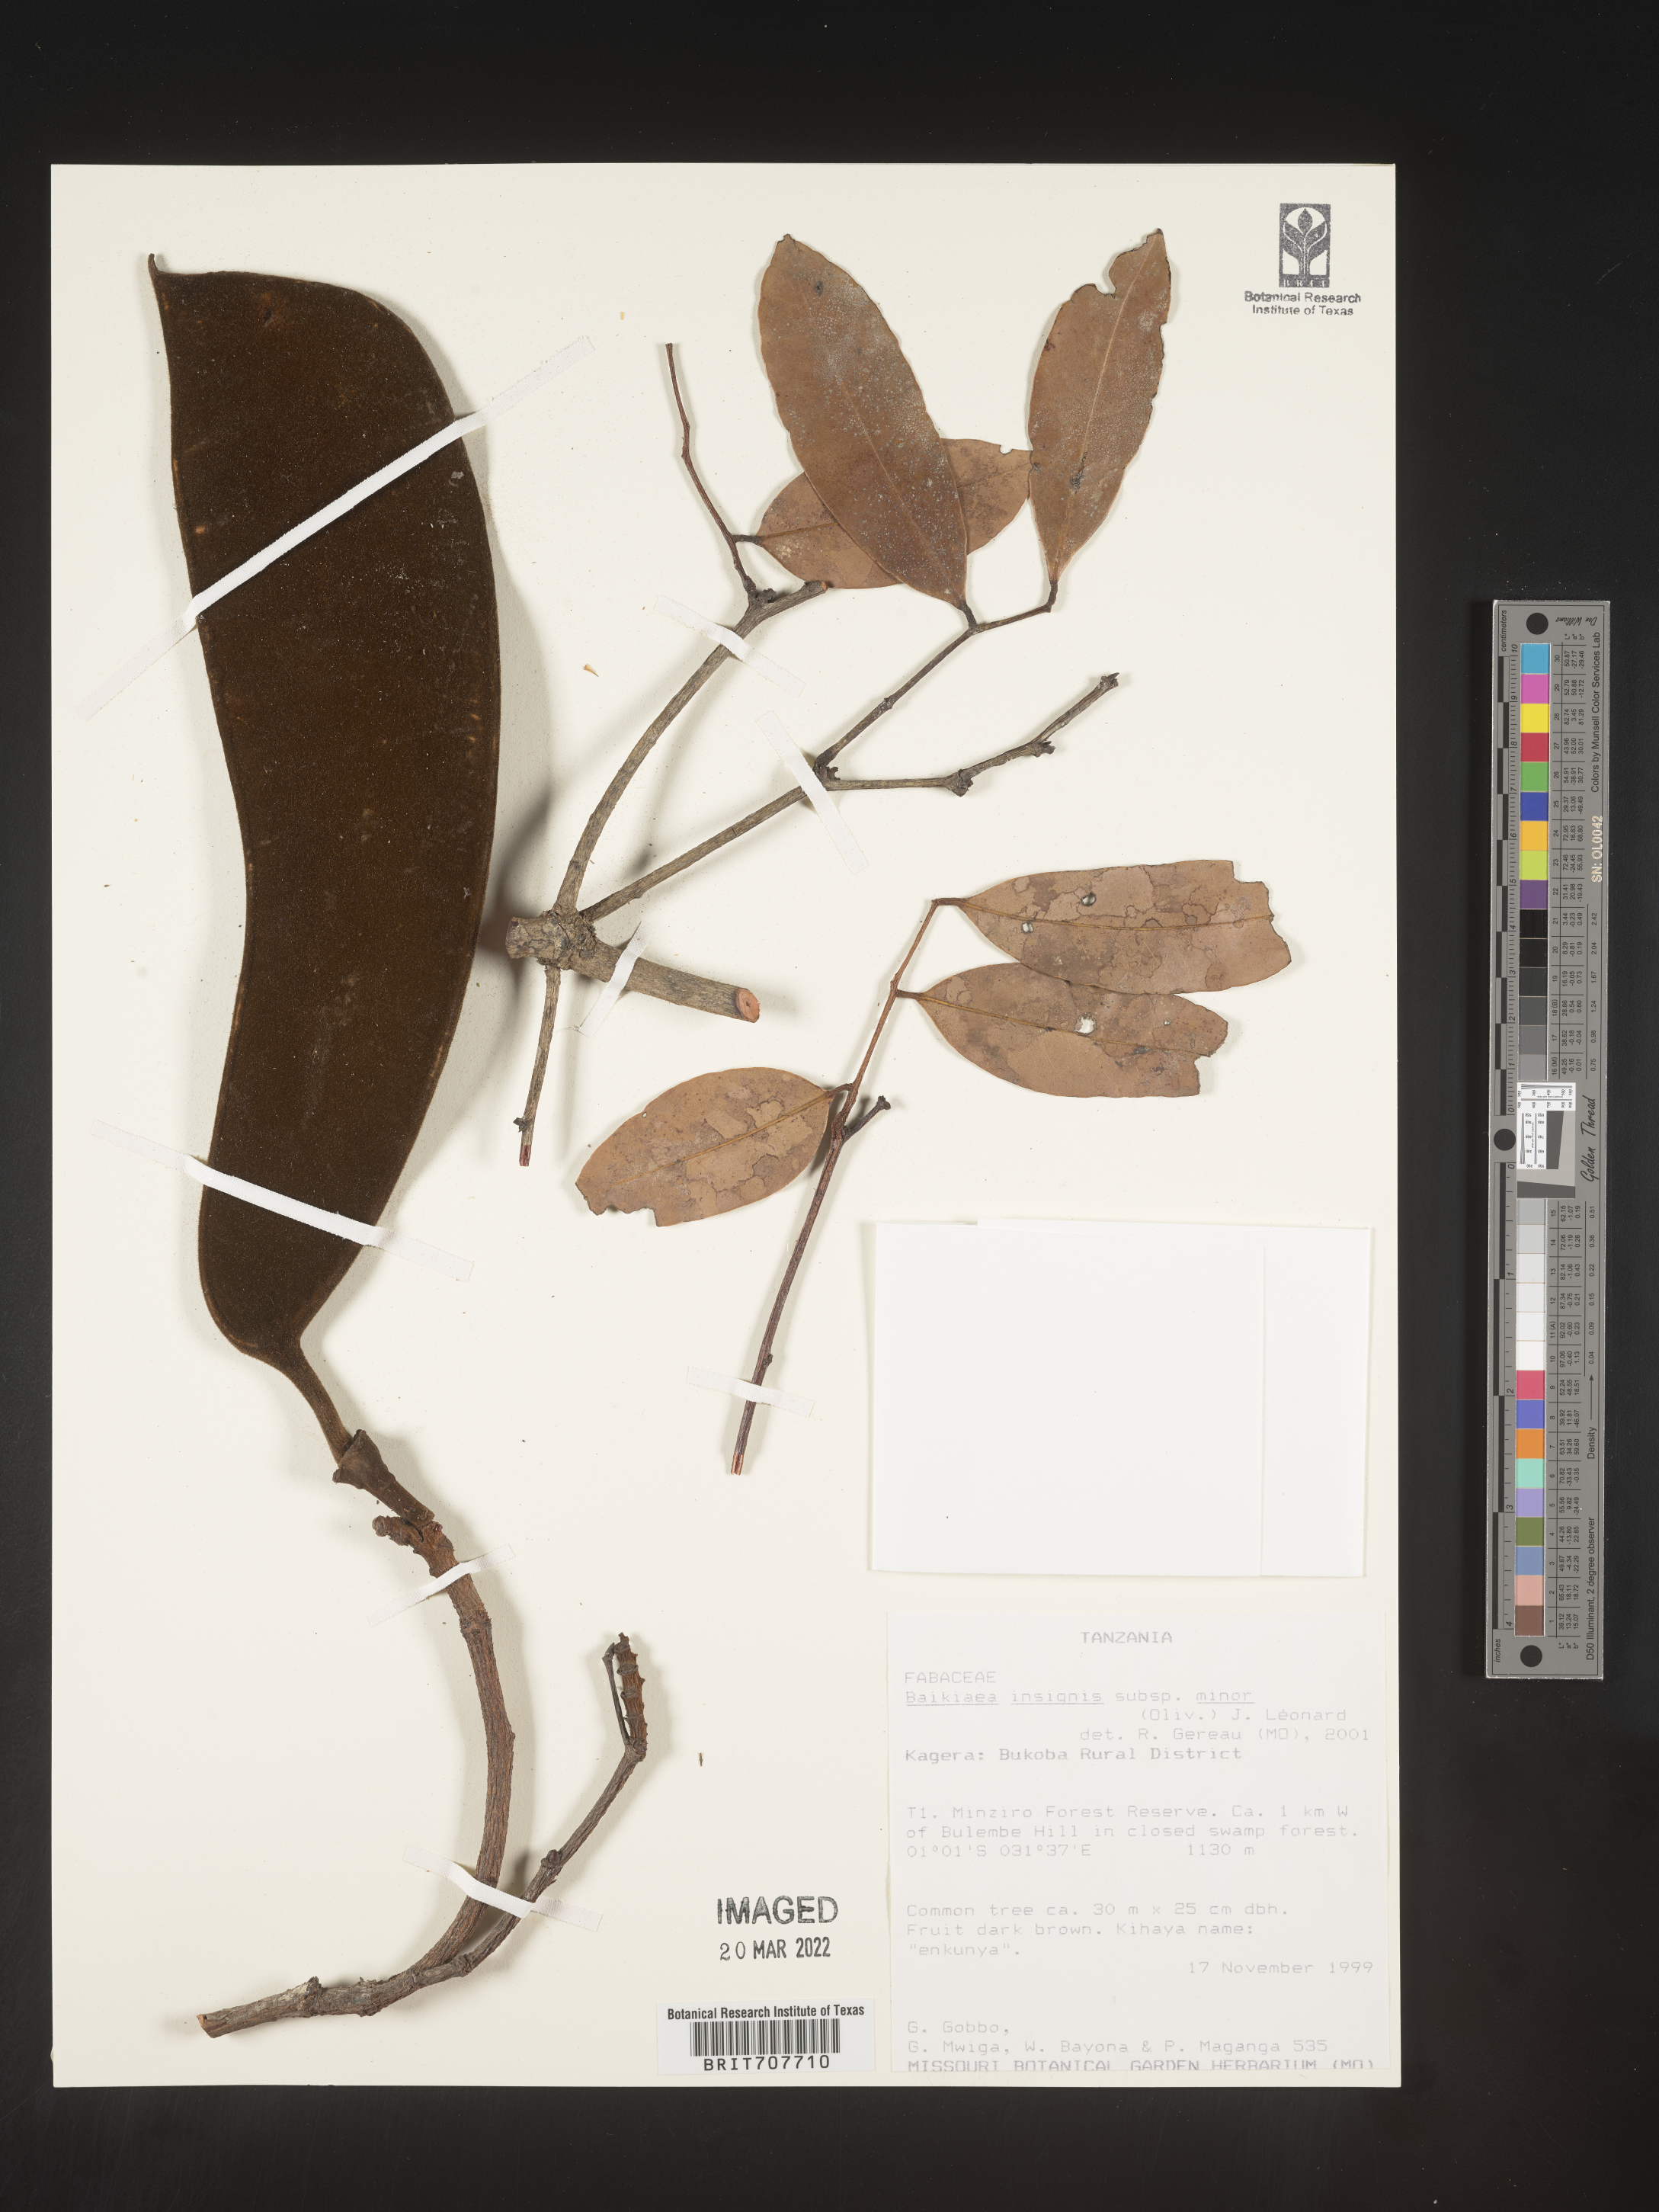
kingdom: Plantae
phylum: Tracheophyta
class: Magnoliopsida
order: Fabales
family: Fabaceae
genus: Baikiaea
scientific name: Baikiaea
